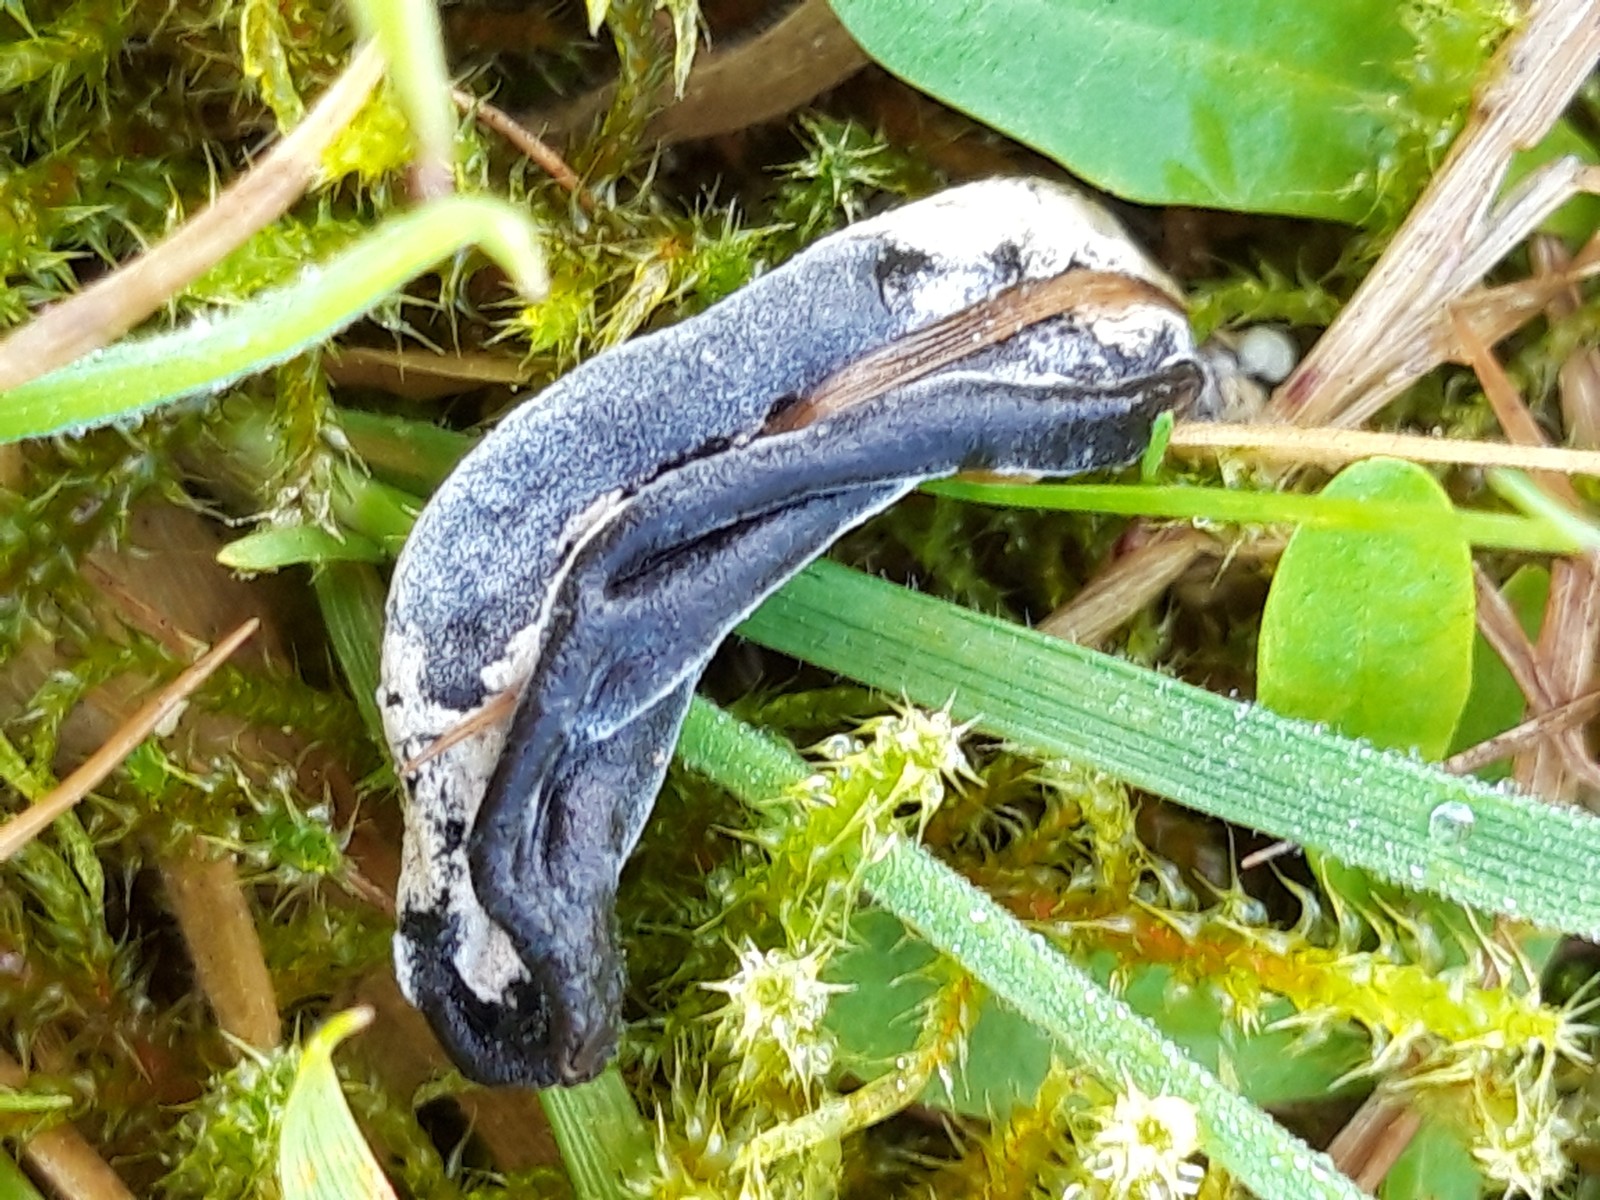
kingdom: Fungi
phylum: Ascomycota
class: Sordariomycetes
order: Hypocreales
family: Hypocreaceae
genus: Hypomyces
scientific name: Hypomyces papulasporae
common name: jordtunge-snylteskorpe
